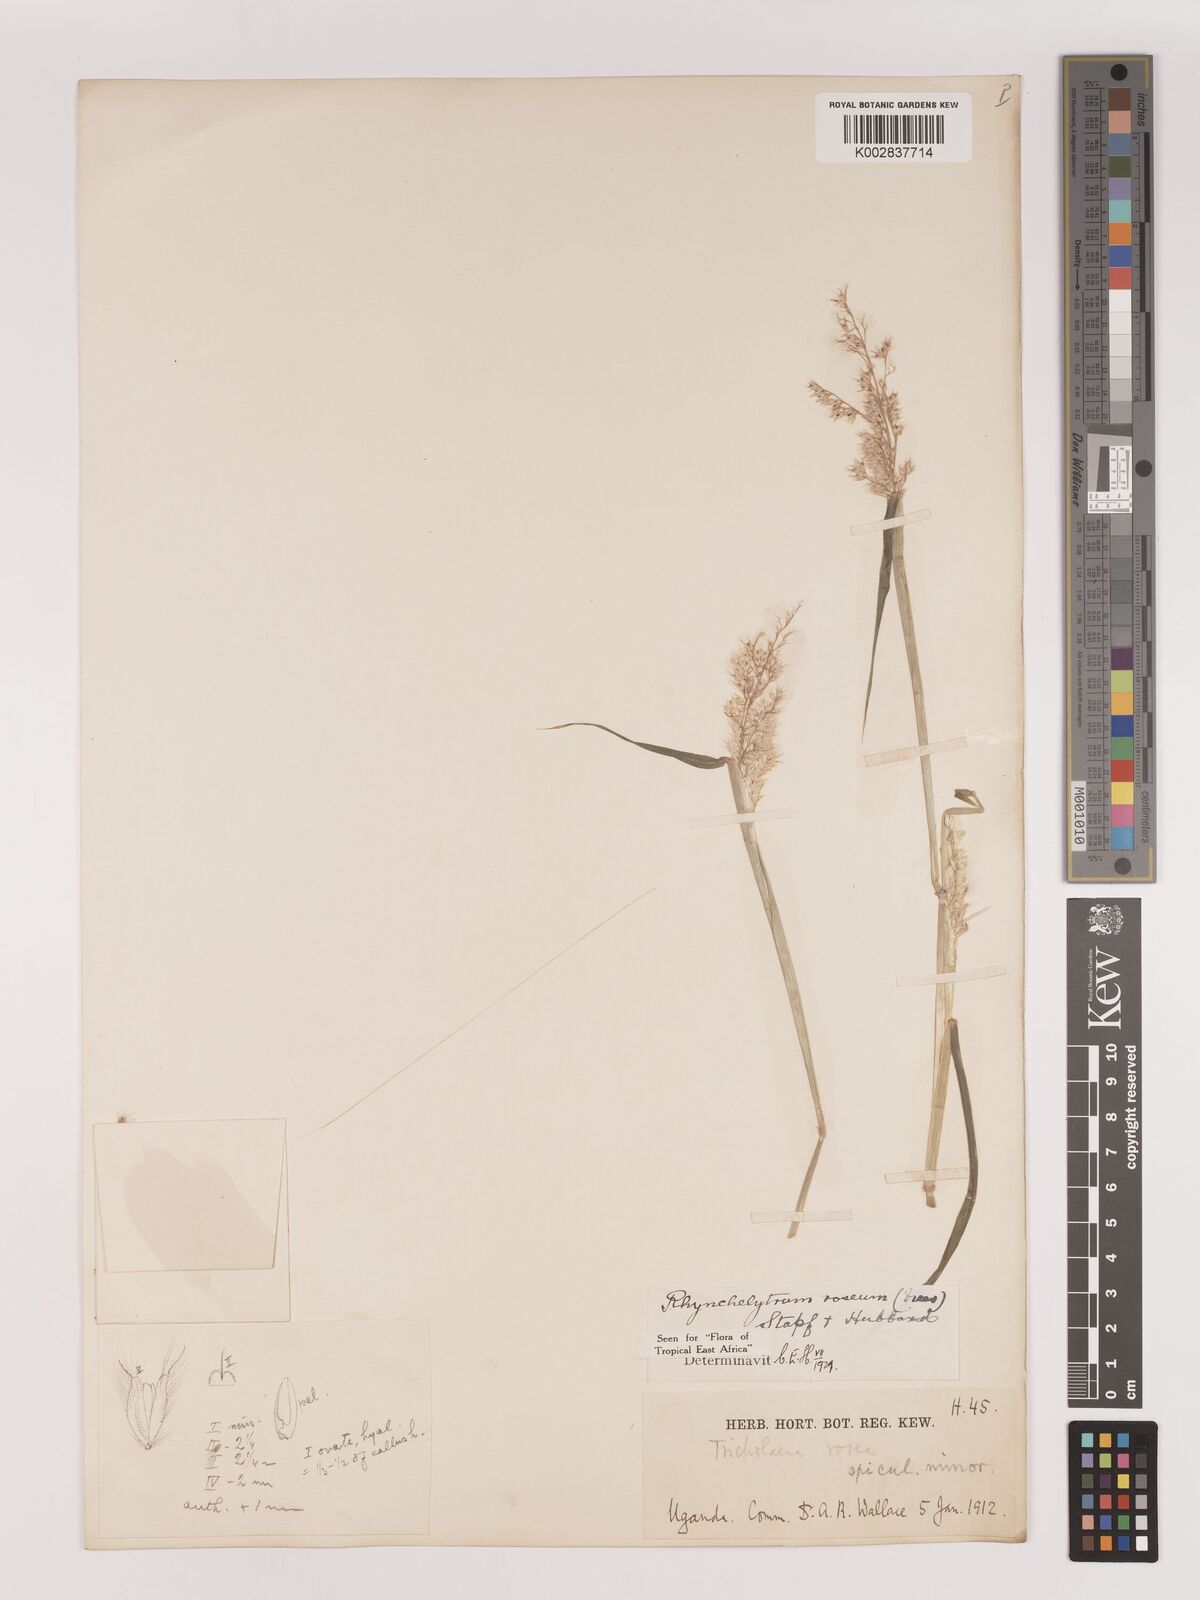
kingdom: Plantae
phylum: Tracheophyta
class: Liliopsida
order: Poales
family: Poaceae
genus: Melinis
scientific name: Melinis repens
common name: Rose natal grass
